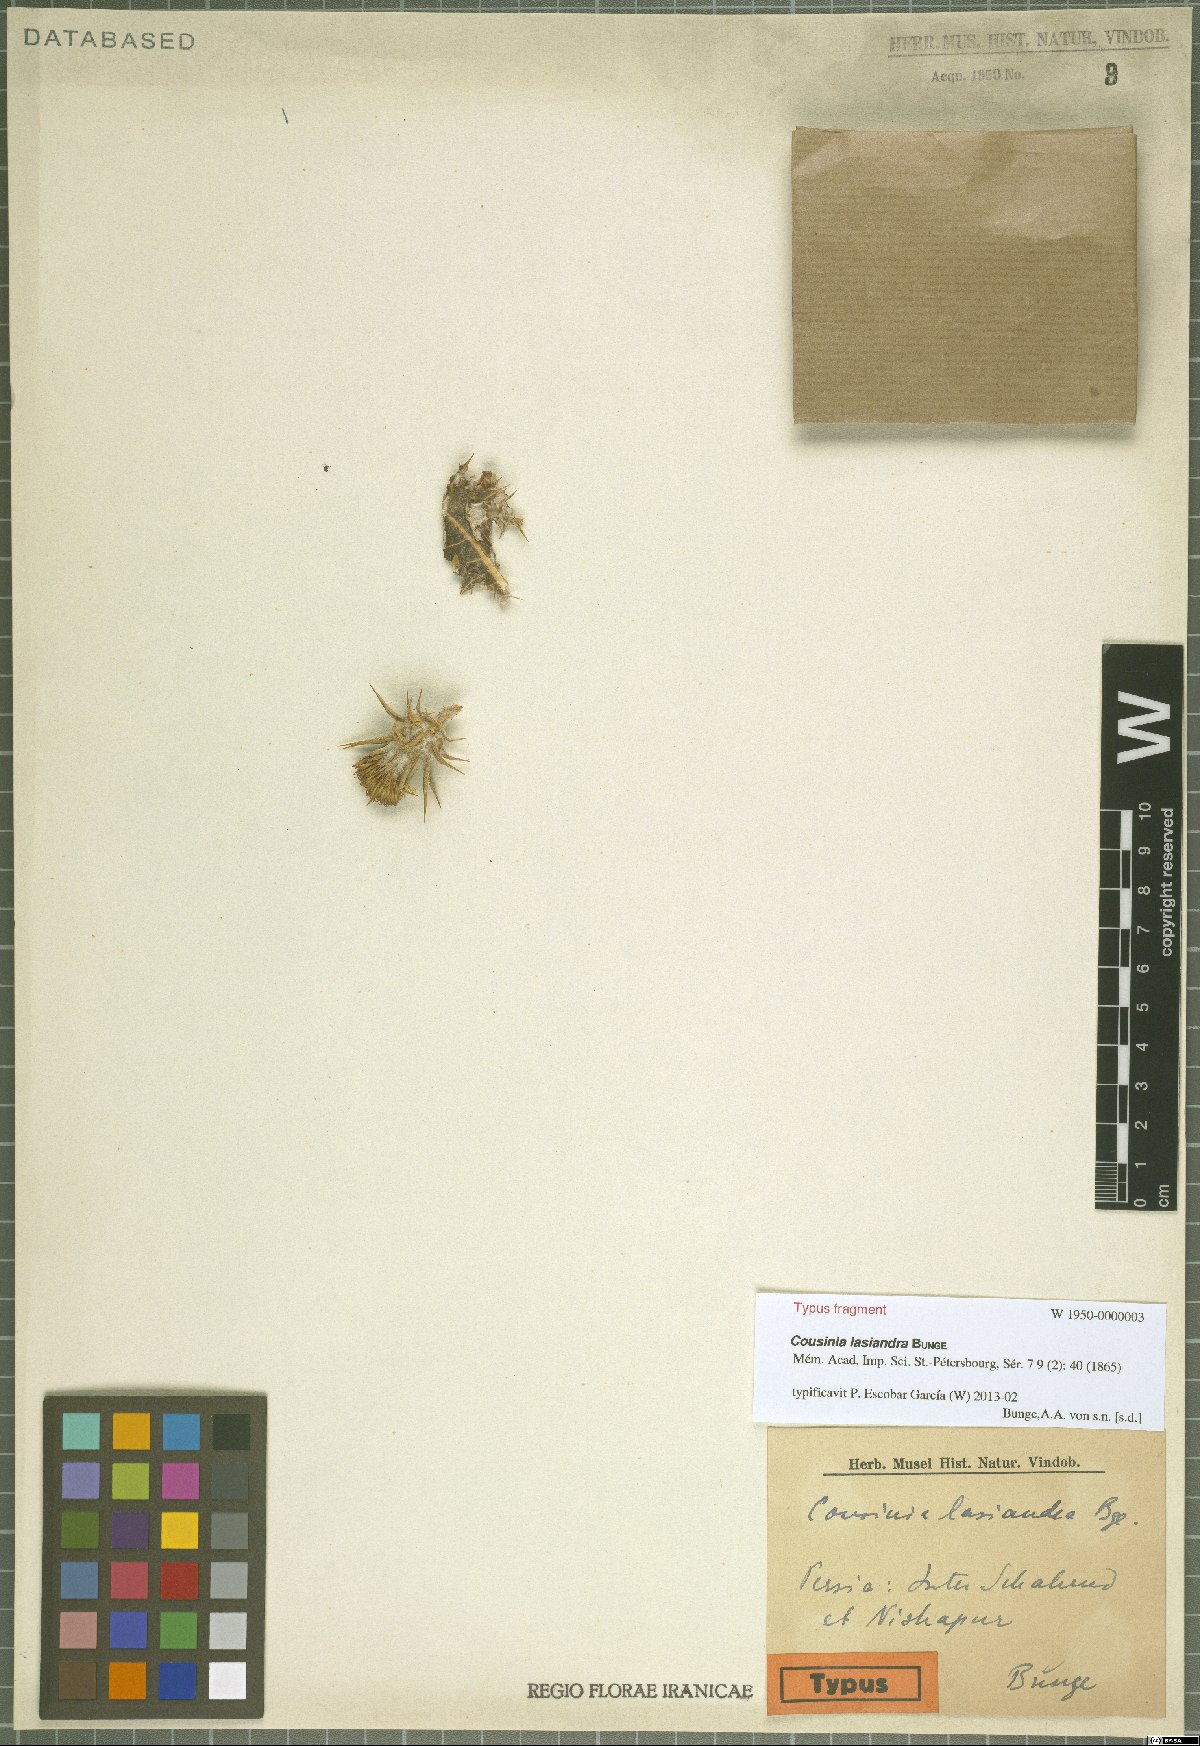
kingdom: Plantae
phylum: Tracheophyta
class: Magnoliopsida
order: Asterales
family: Asteraceae
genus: Cousinia
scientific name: Cousinia postiana
